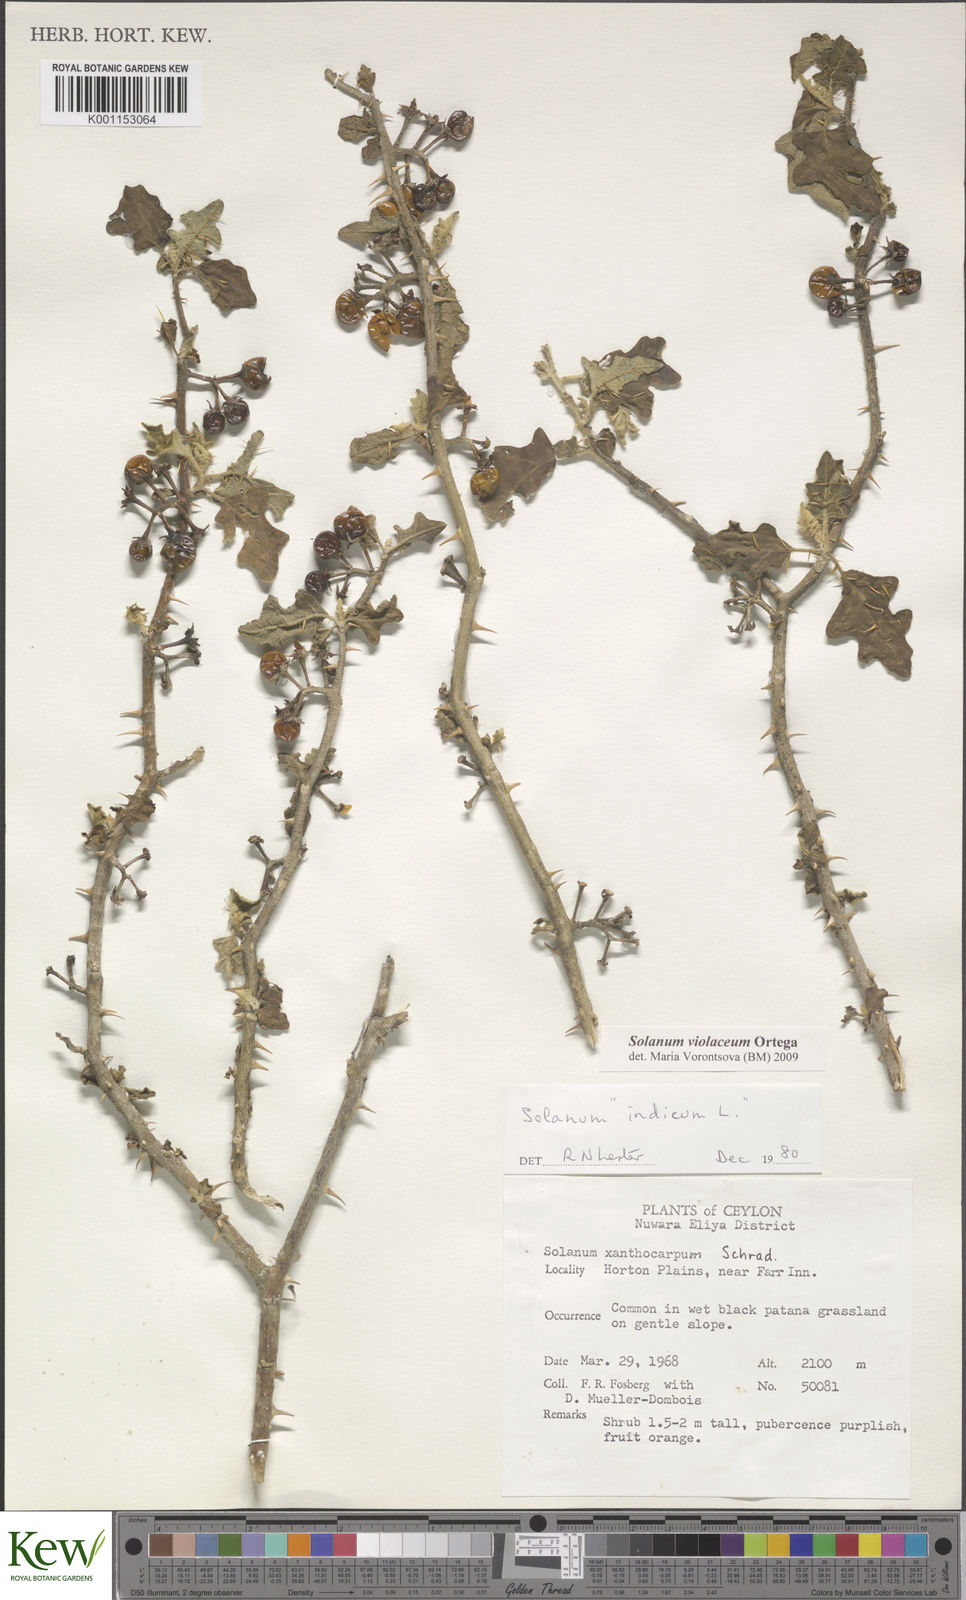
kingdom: Plantae
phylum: Tracheophyta
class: Magnoliopsida
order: Solanales
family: Solanaceae
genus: Solanum
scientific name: Solanum violaceum
